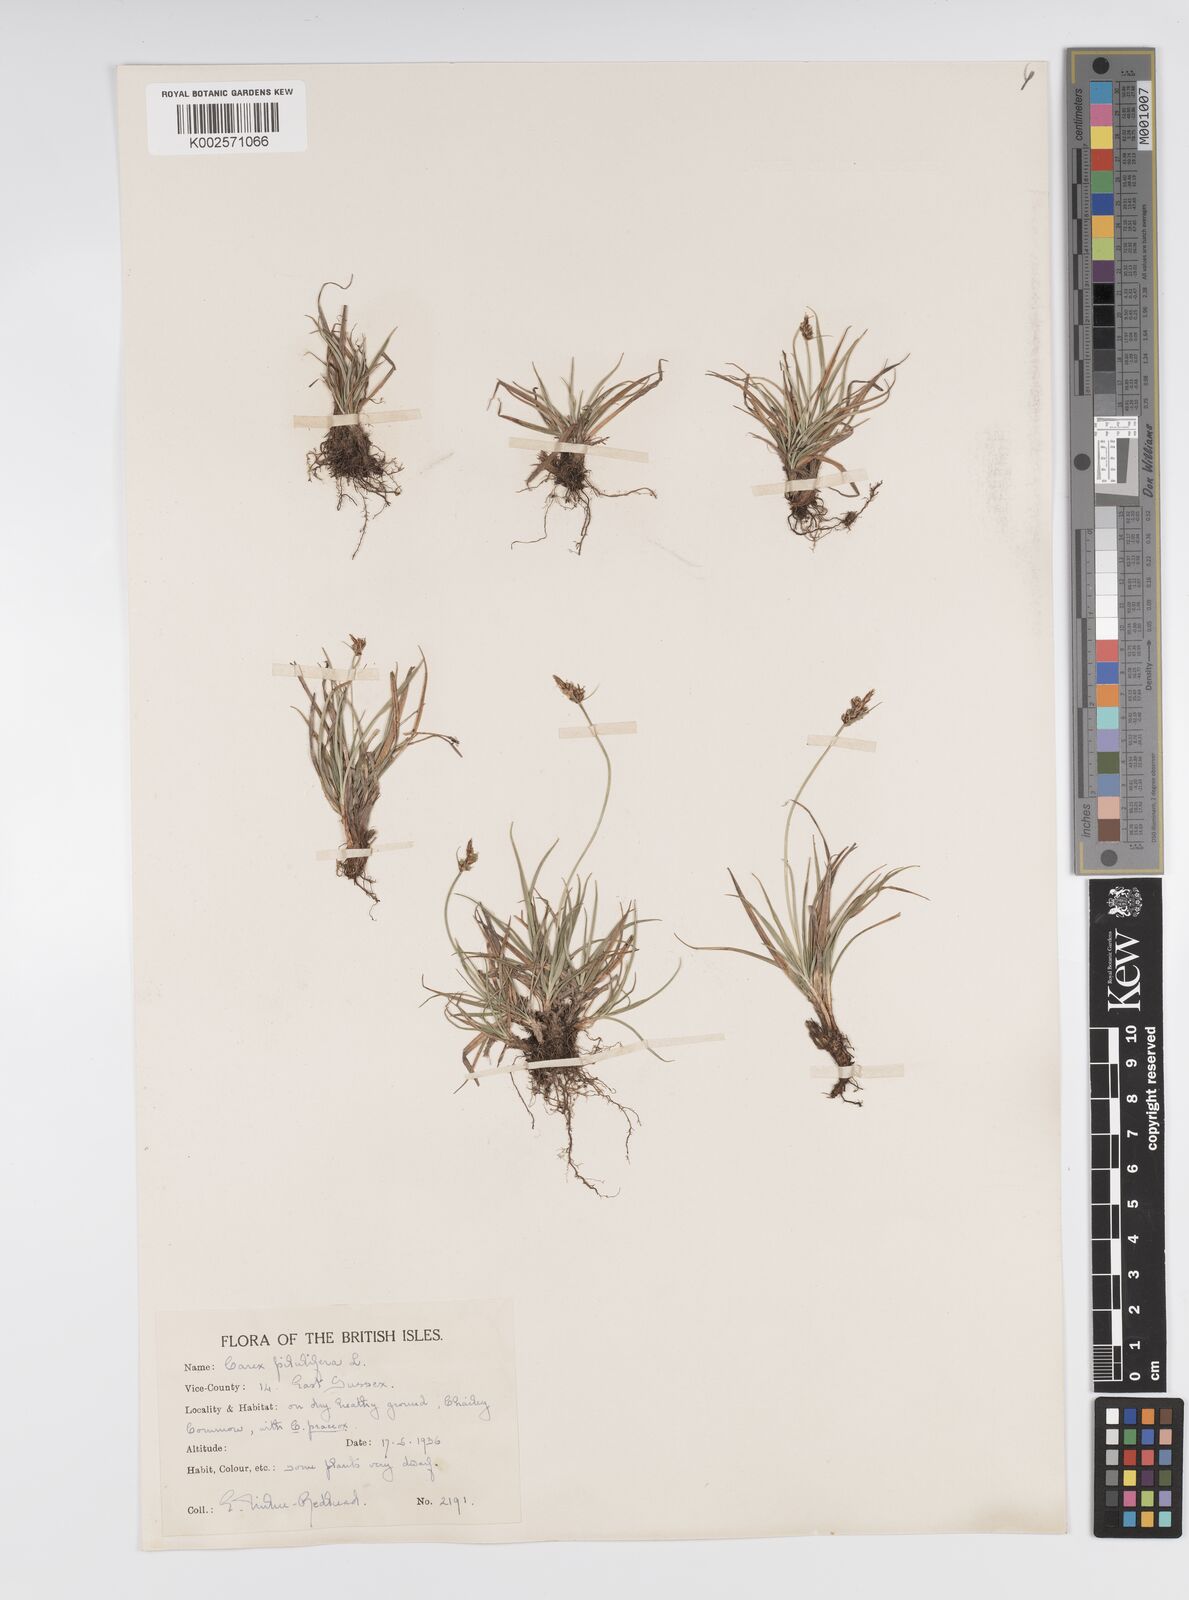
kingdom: Plantae
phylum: Tracheophyta
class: Liliopsida
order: Poales
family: Cyperaceae
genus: Carex
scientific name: Carex pilulifera
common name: Pill sedge
